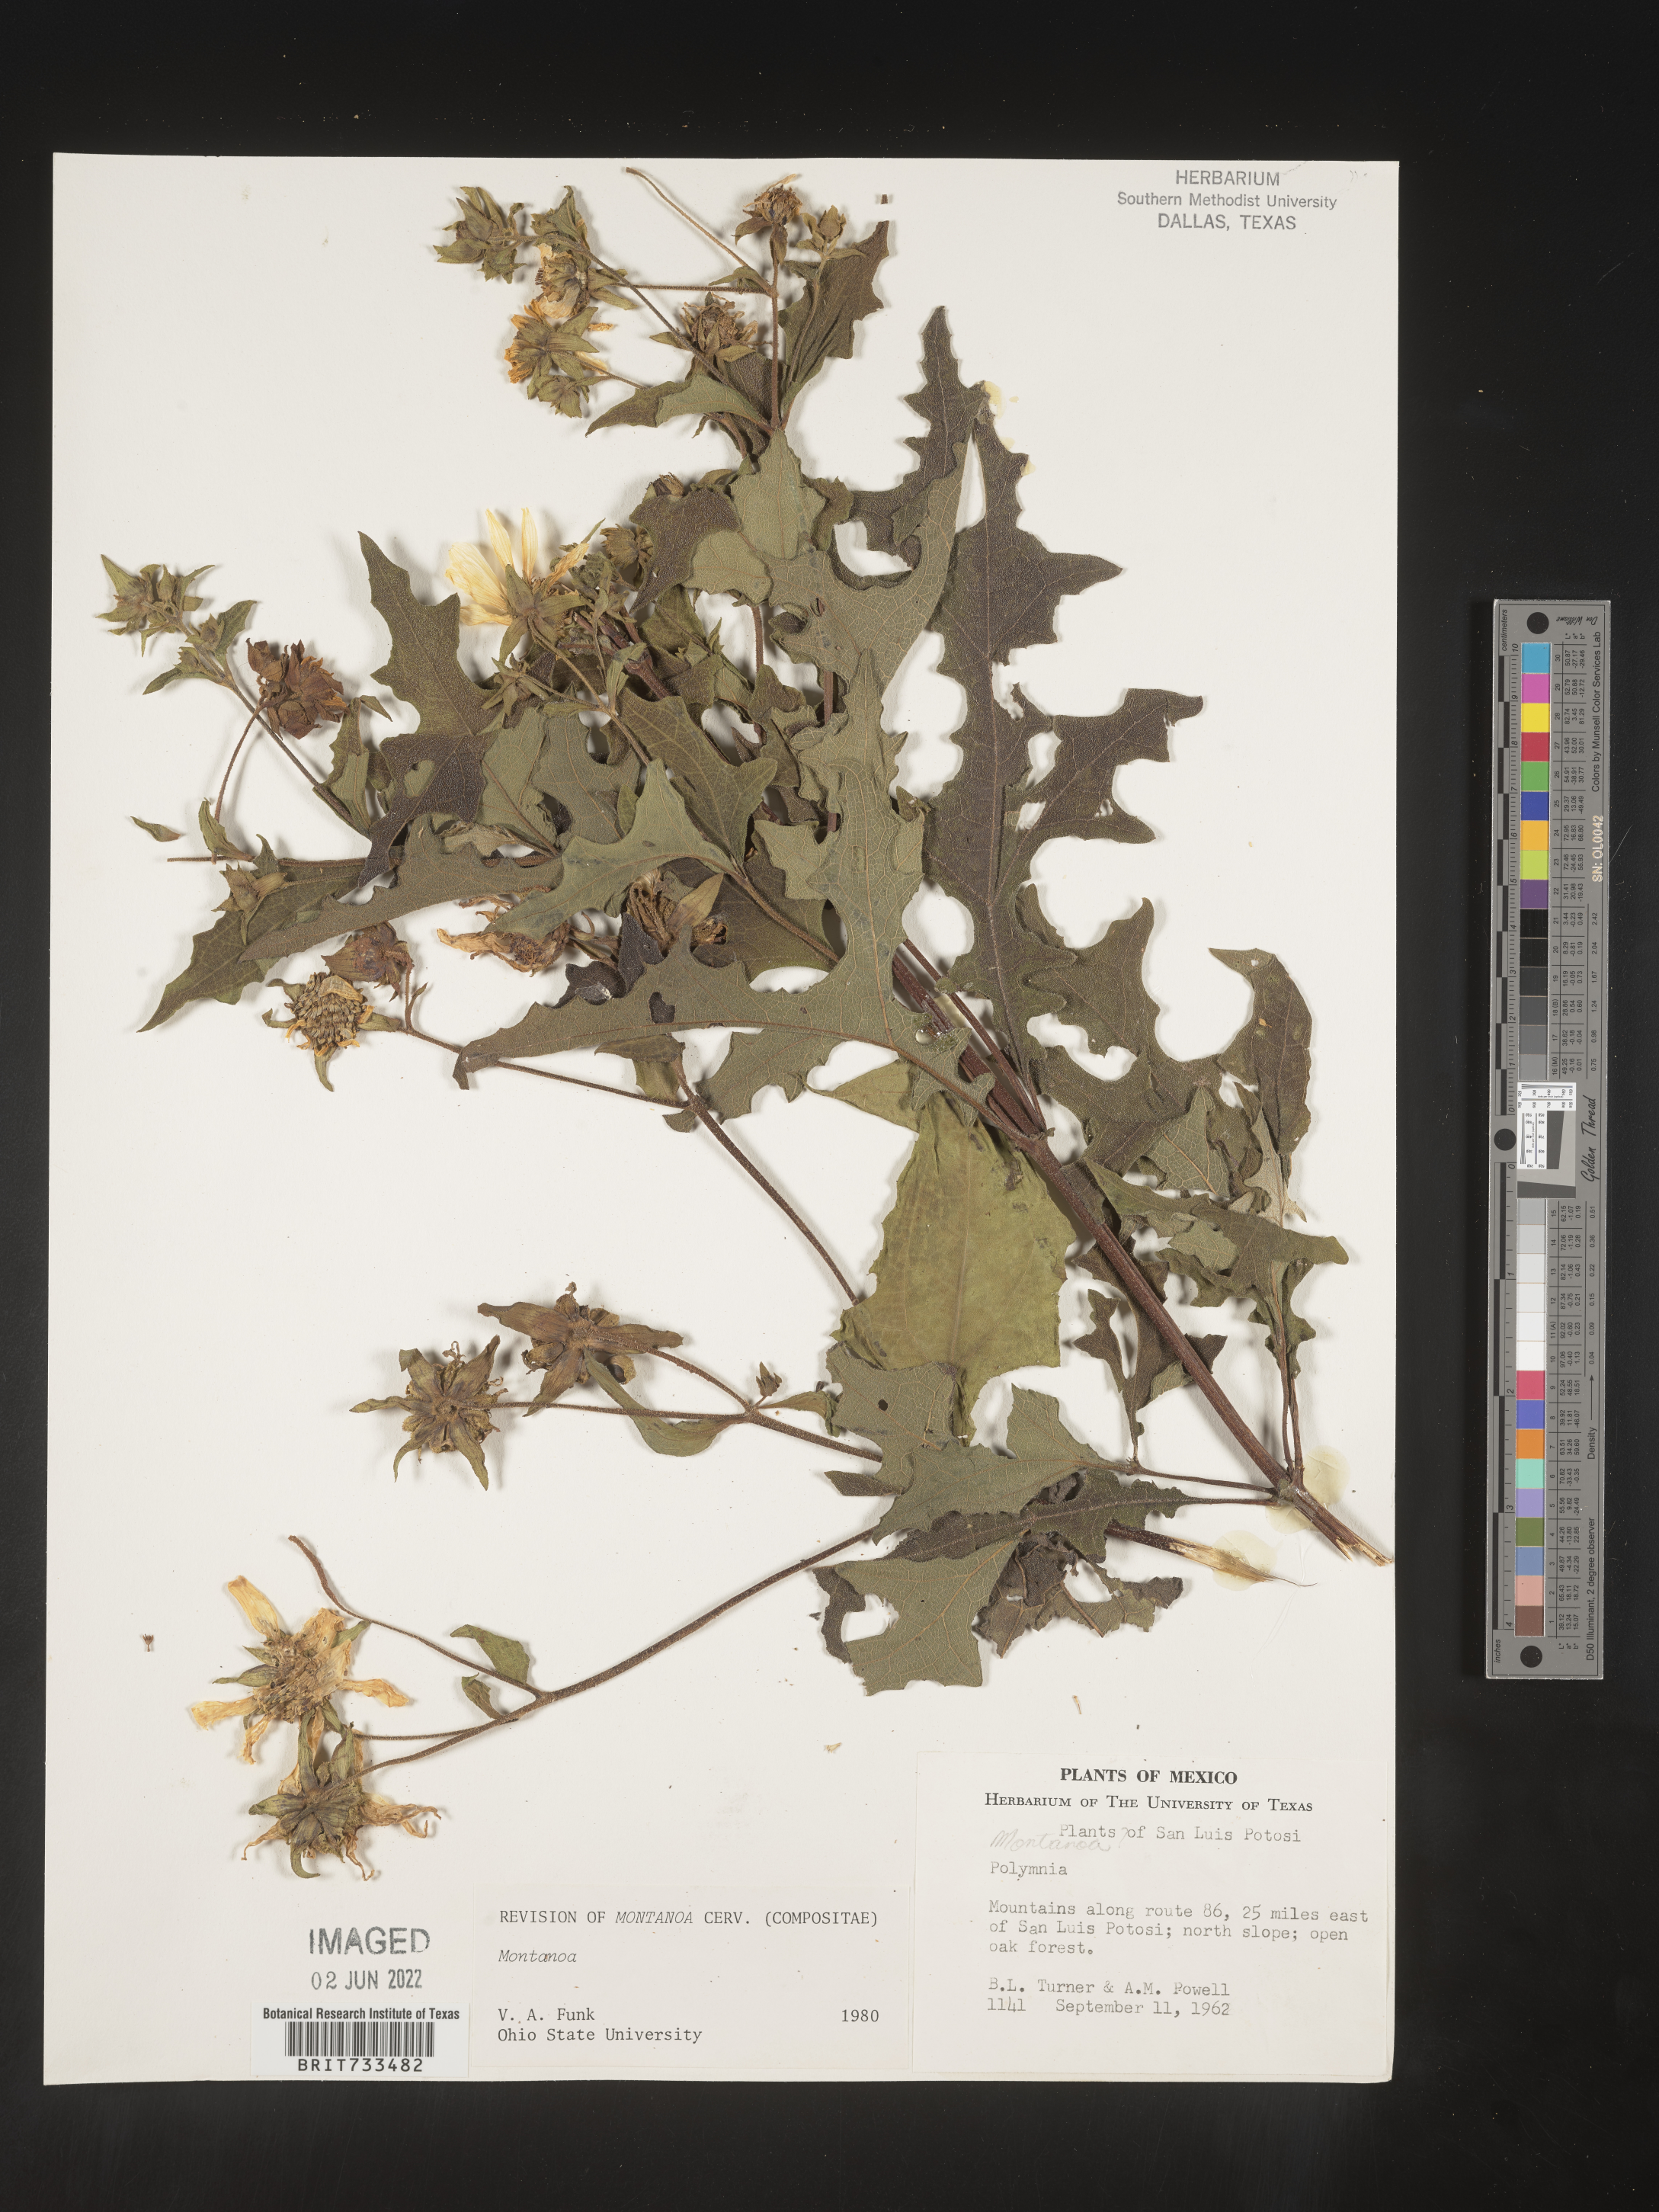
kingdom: Plantae
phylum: Tracheophyta
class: Magnoliopsida
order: Asterales
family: Asteraceae
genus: Montanoa
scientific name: Montanoa
